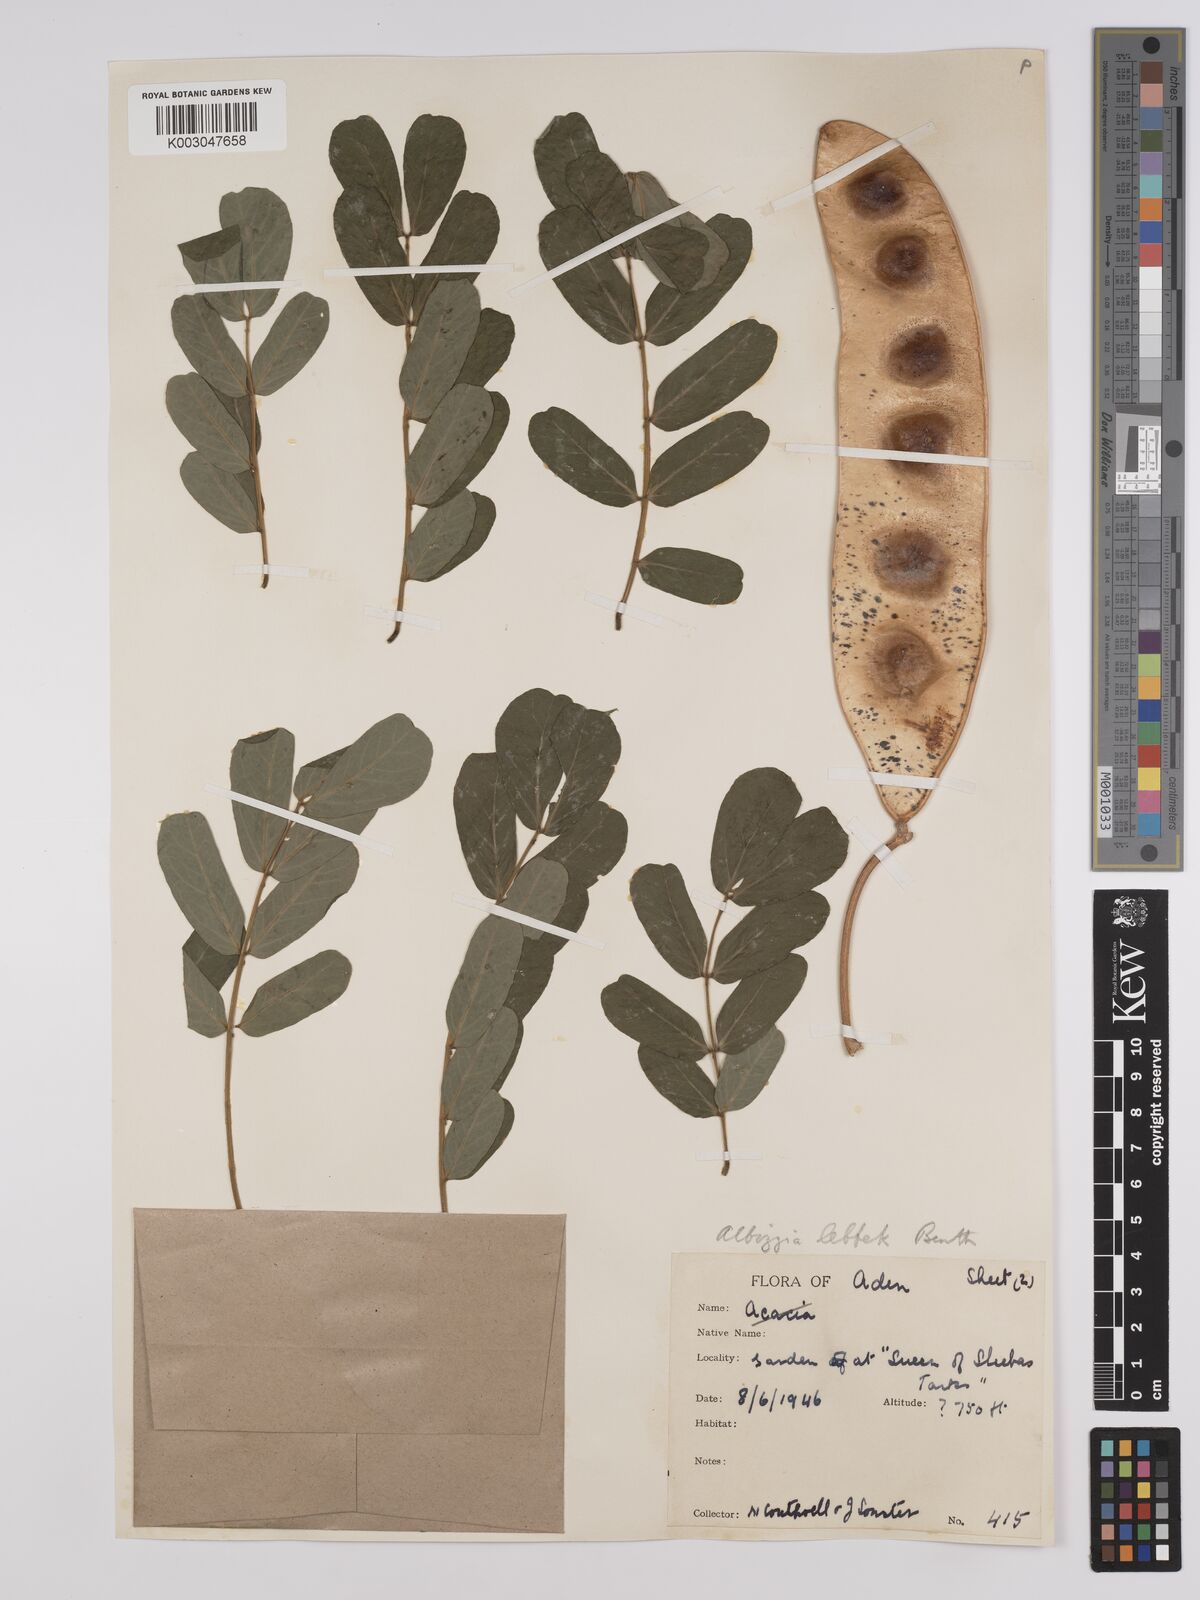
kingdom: Plantae
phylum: Tracheophyta
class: Magnoliopsida
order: Fabales
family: Fabaceae
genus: Albizia
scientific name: Albizia lebbeck
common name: Woman's tongue
